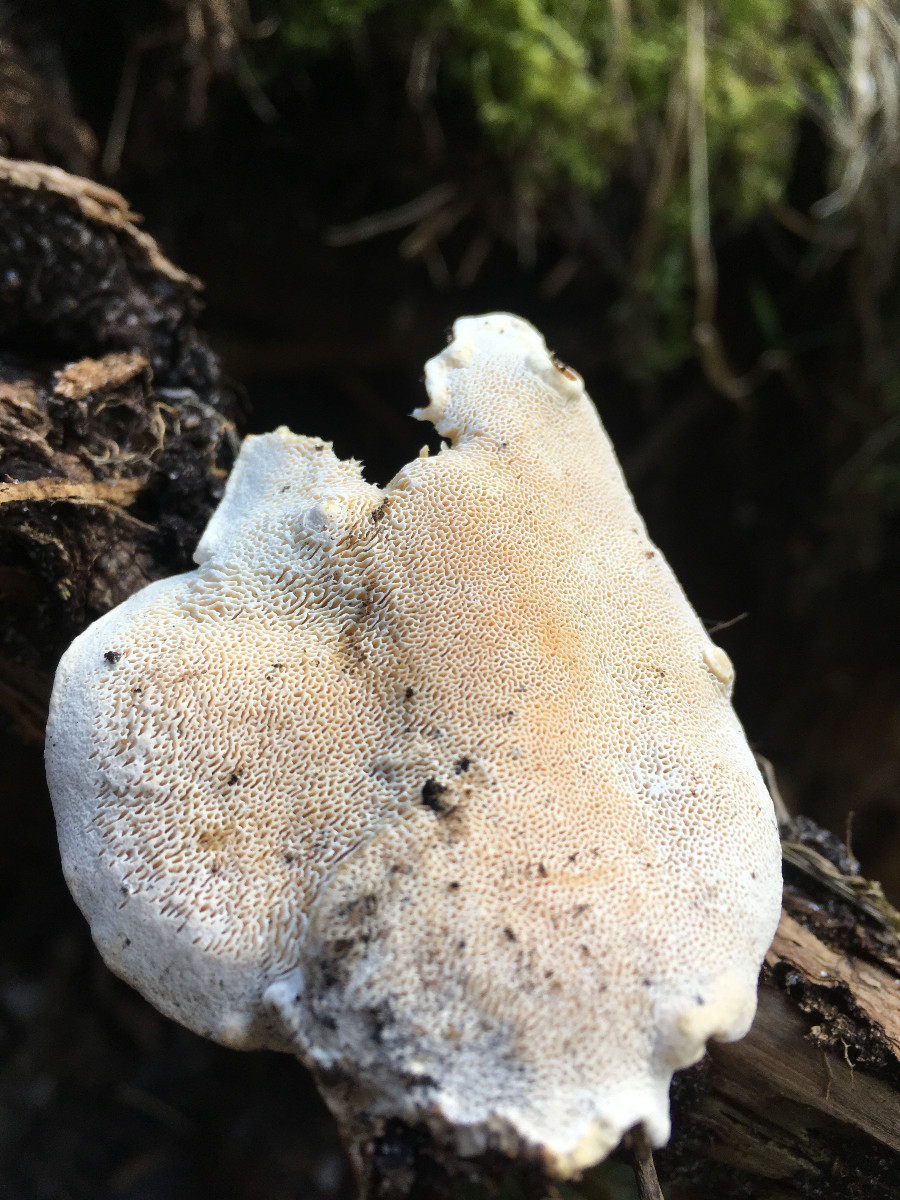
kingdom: Fungi
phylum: Basidiomycota
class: Agaricomycetes
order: Russulales
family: Bondarzewiaceae
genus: Heterobasidion
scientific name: Heterobasidion annosum
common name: almindelig rodfordærver
